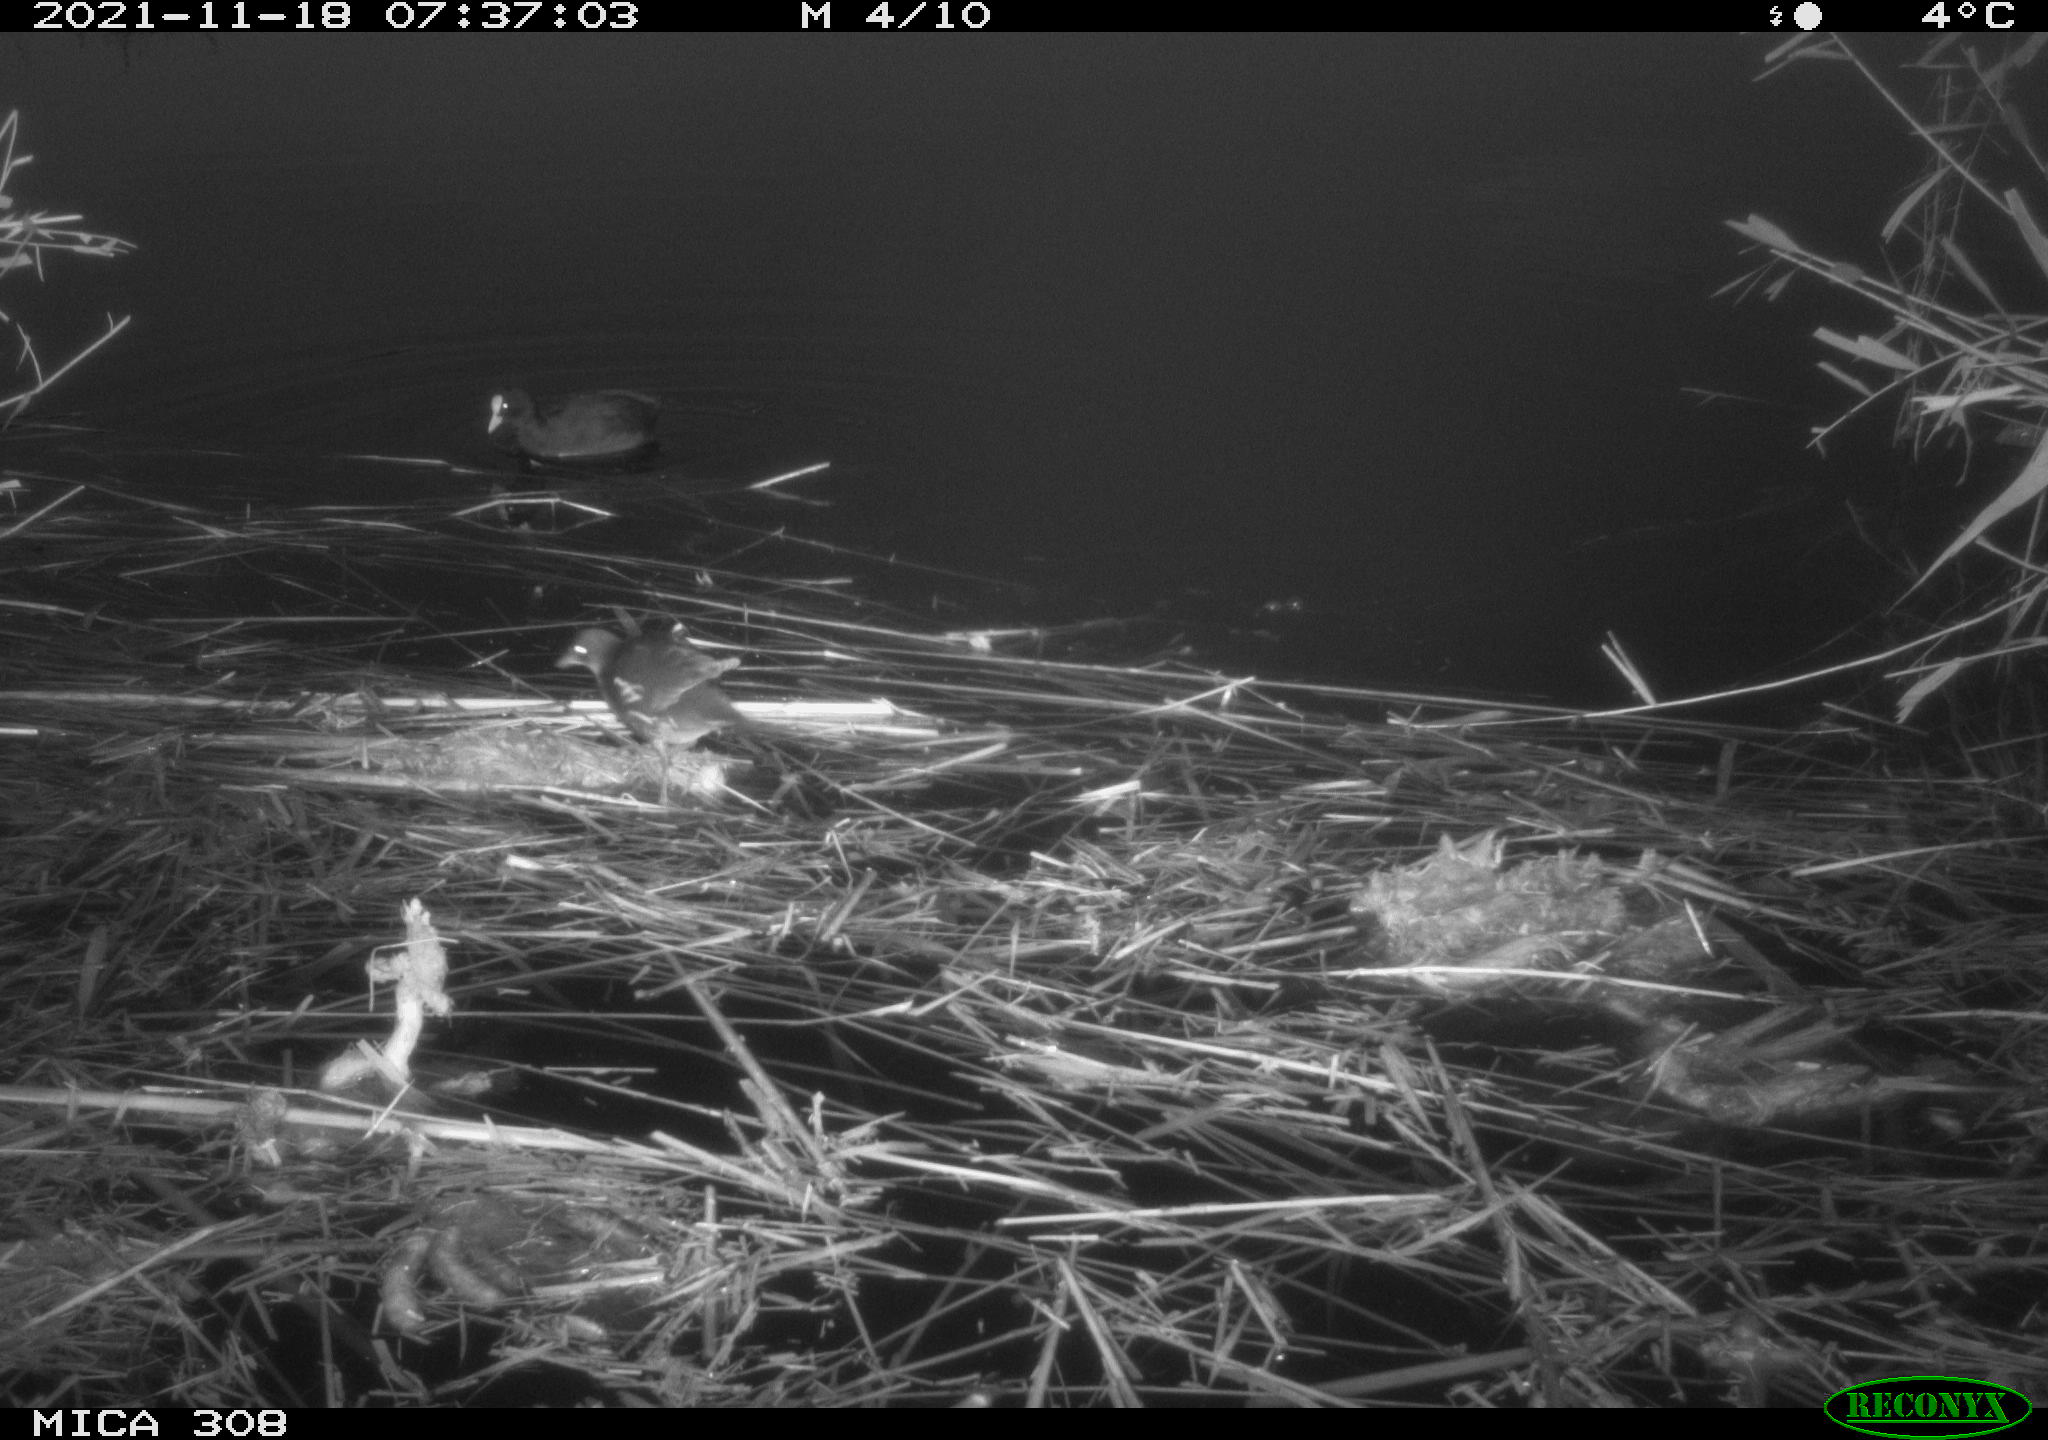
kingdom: Animalia
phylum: Chordata
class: Aves
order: Gruiformes
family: Rallidae
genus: Fulica
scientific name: Fulica atra
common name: Eurasian coot
